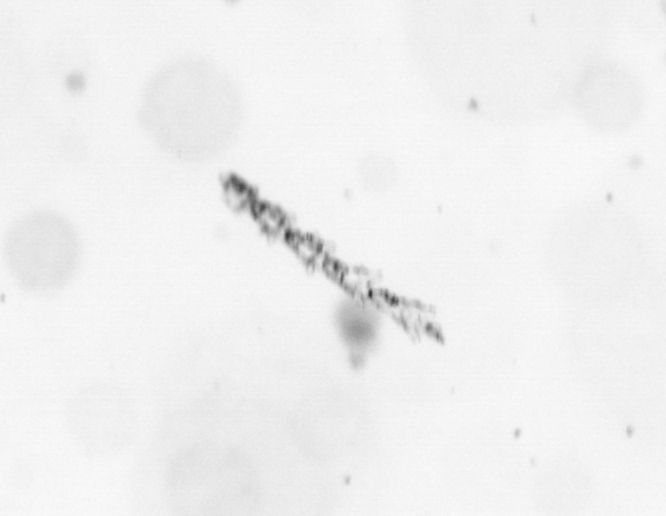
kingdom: Animalia
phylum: Cnidaria
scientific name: Cnidaria
